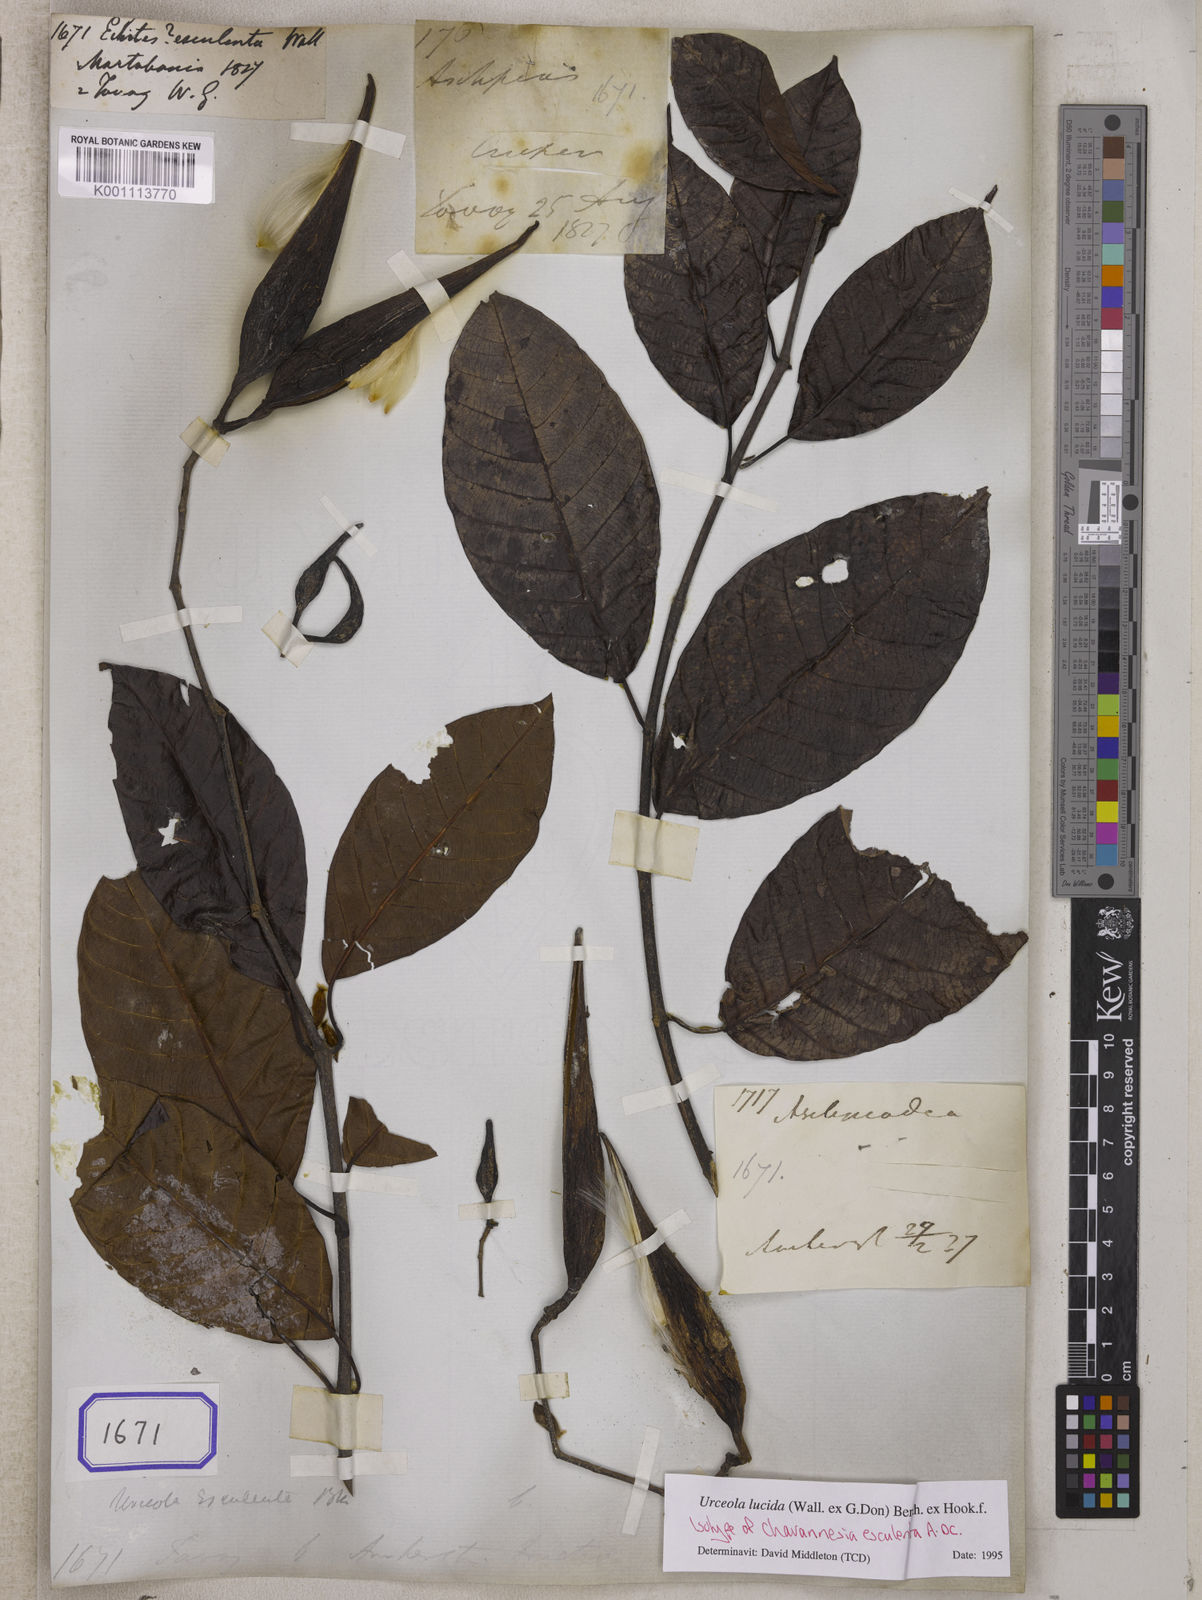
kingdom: Plantae
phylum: Tracheophyta
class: Magnoliopsida
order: Gentianales
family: Apocynaceae
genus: Urceola
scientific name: Urceola lucida
